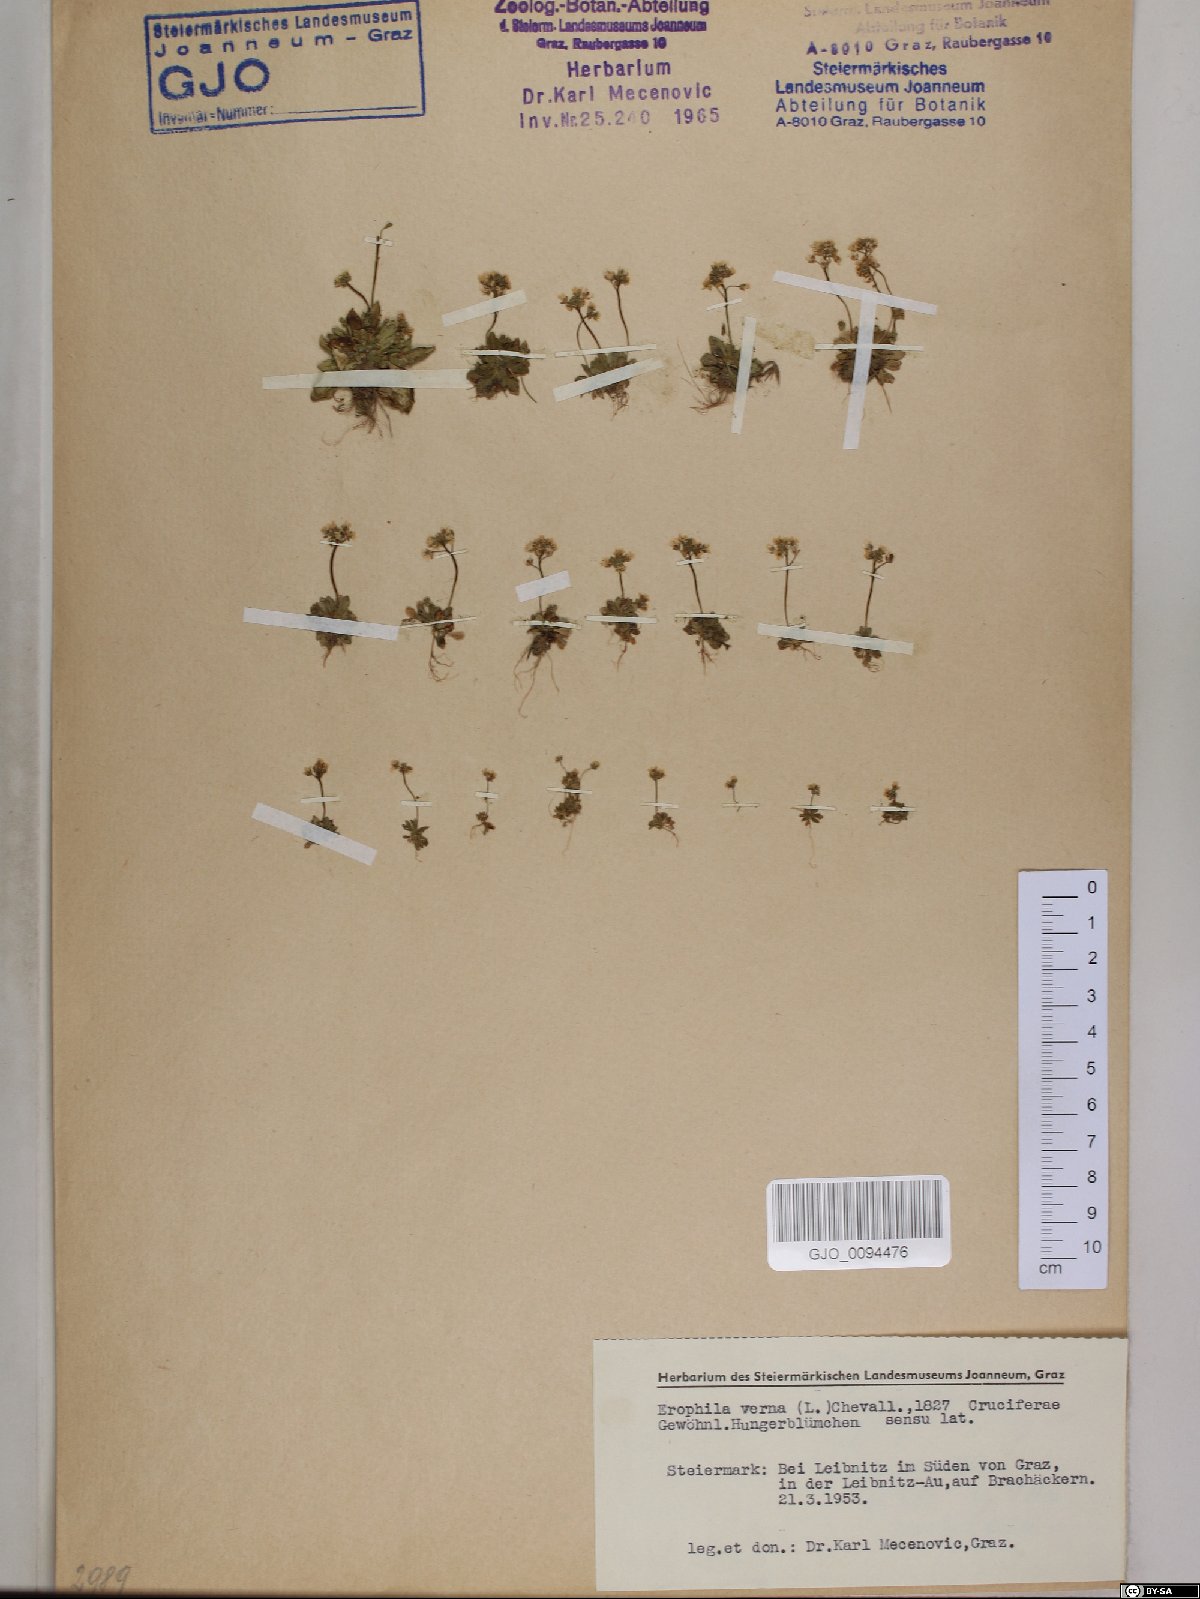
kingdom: Plantae
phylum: Tracheophyta
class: Magnoliopsida
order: Brassicales
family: Brassicaceae
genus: Draba
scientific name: Draba verna
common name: Spring draba
